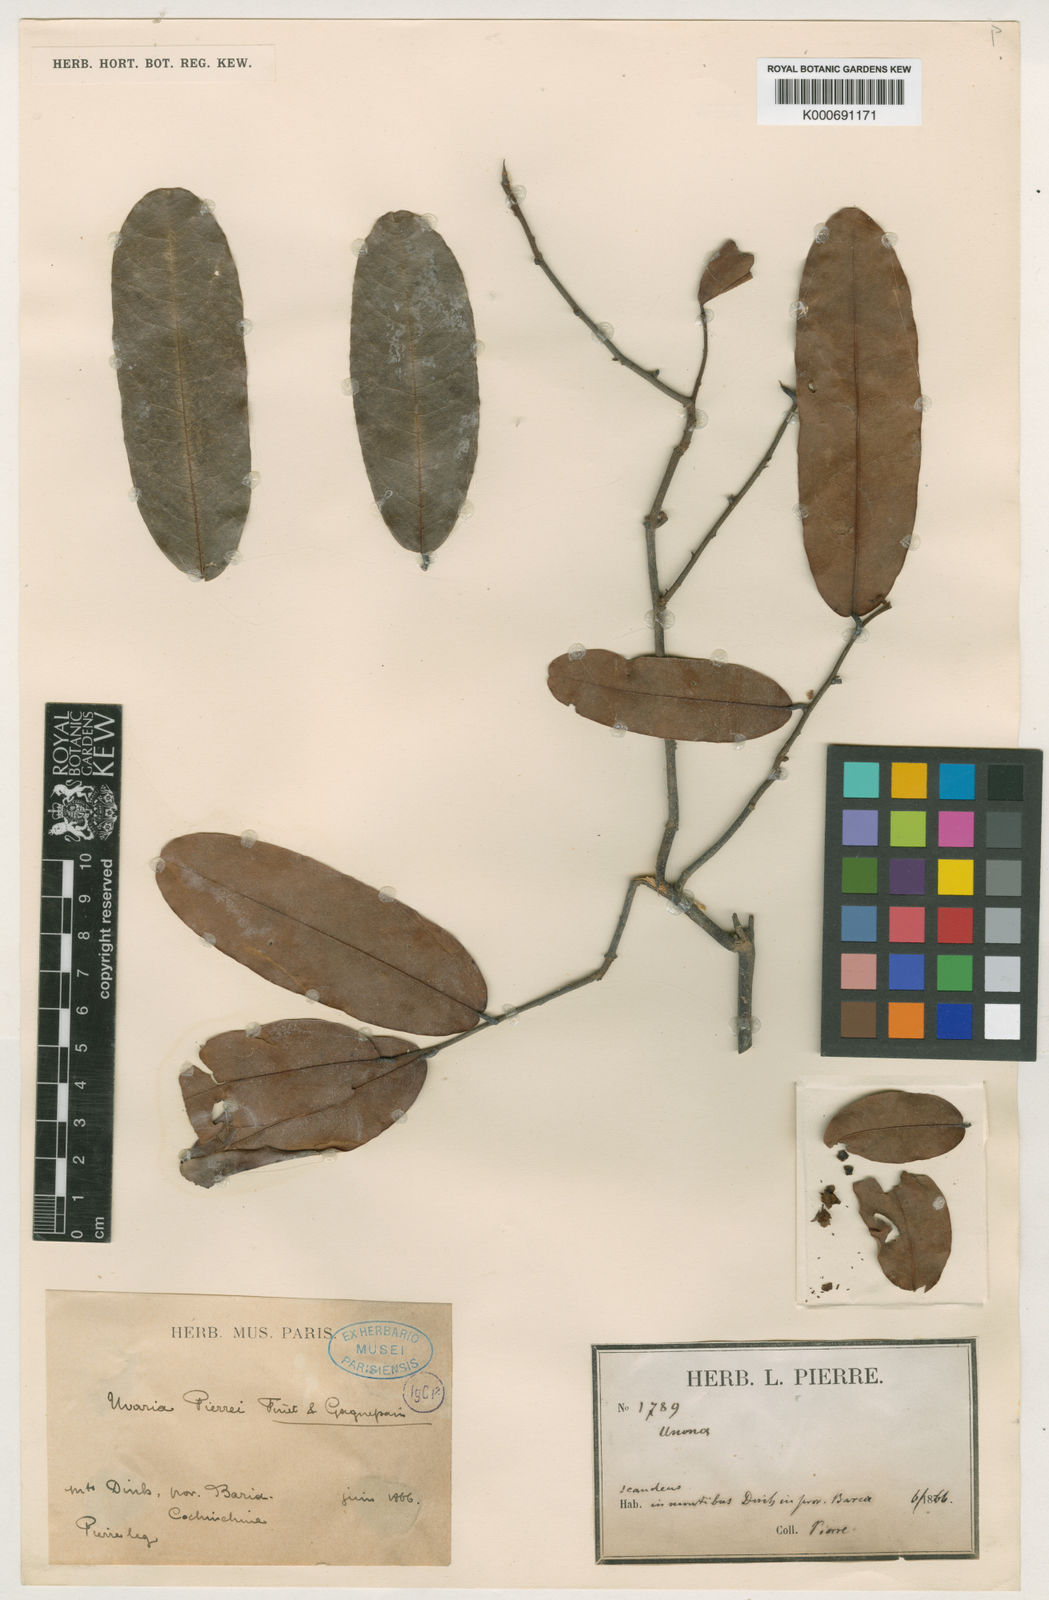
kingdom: Plantae
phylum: Tracheophyta
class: Magnoliopsida
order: Magnoliales
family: Annonaceae
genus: Uvaria
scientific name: Uvaria pierrei
